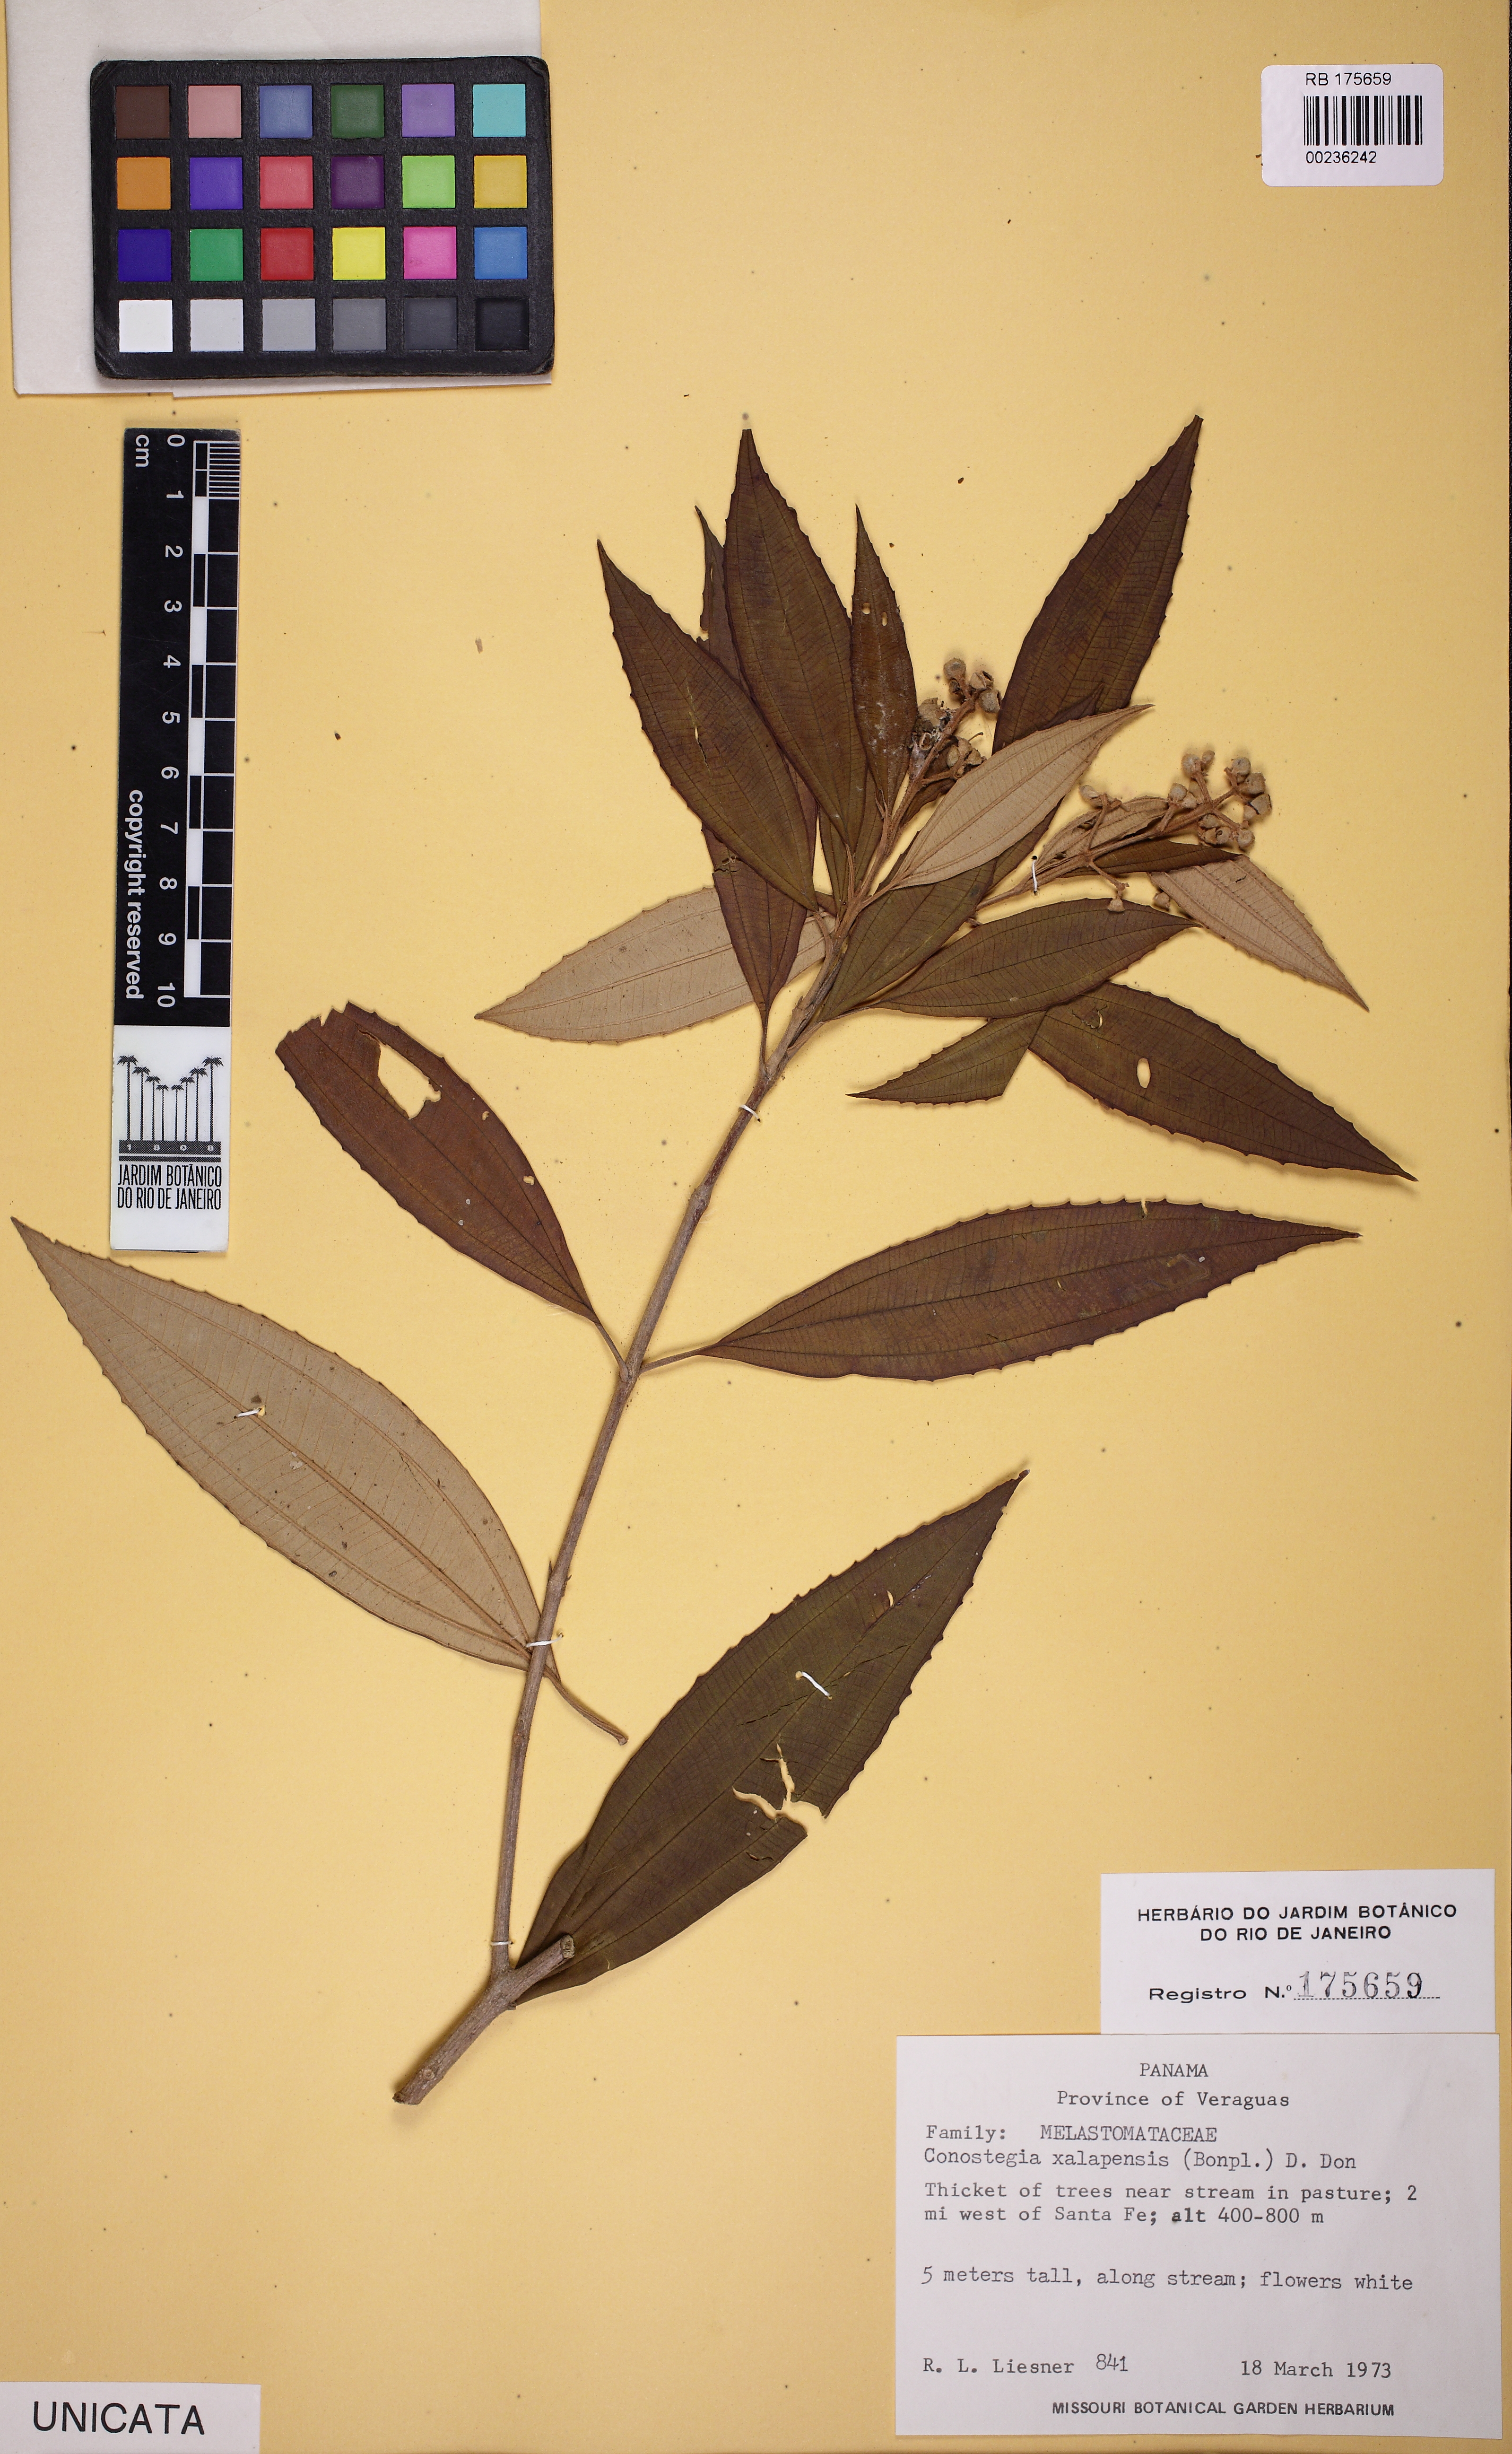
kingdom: Plantae
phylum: Tracheophyta
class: Magnoliopsida
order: Myrtales
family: Melastomataceae
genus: Miconia
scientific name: Miconia xalapensis
